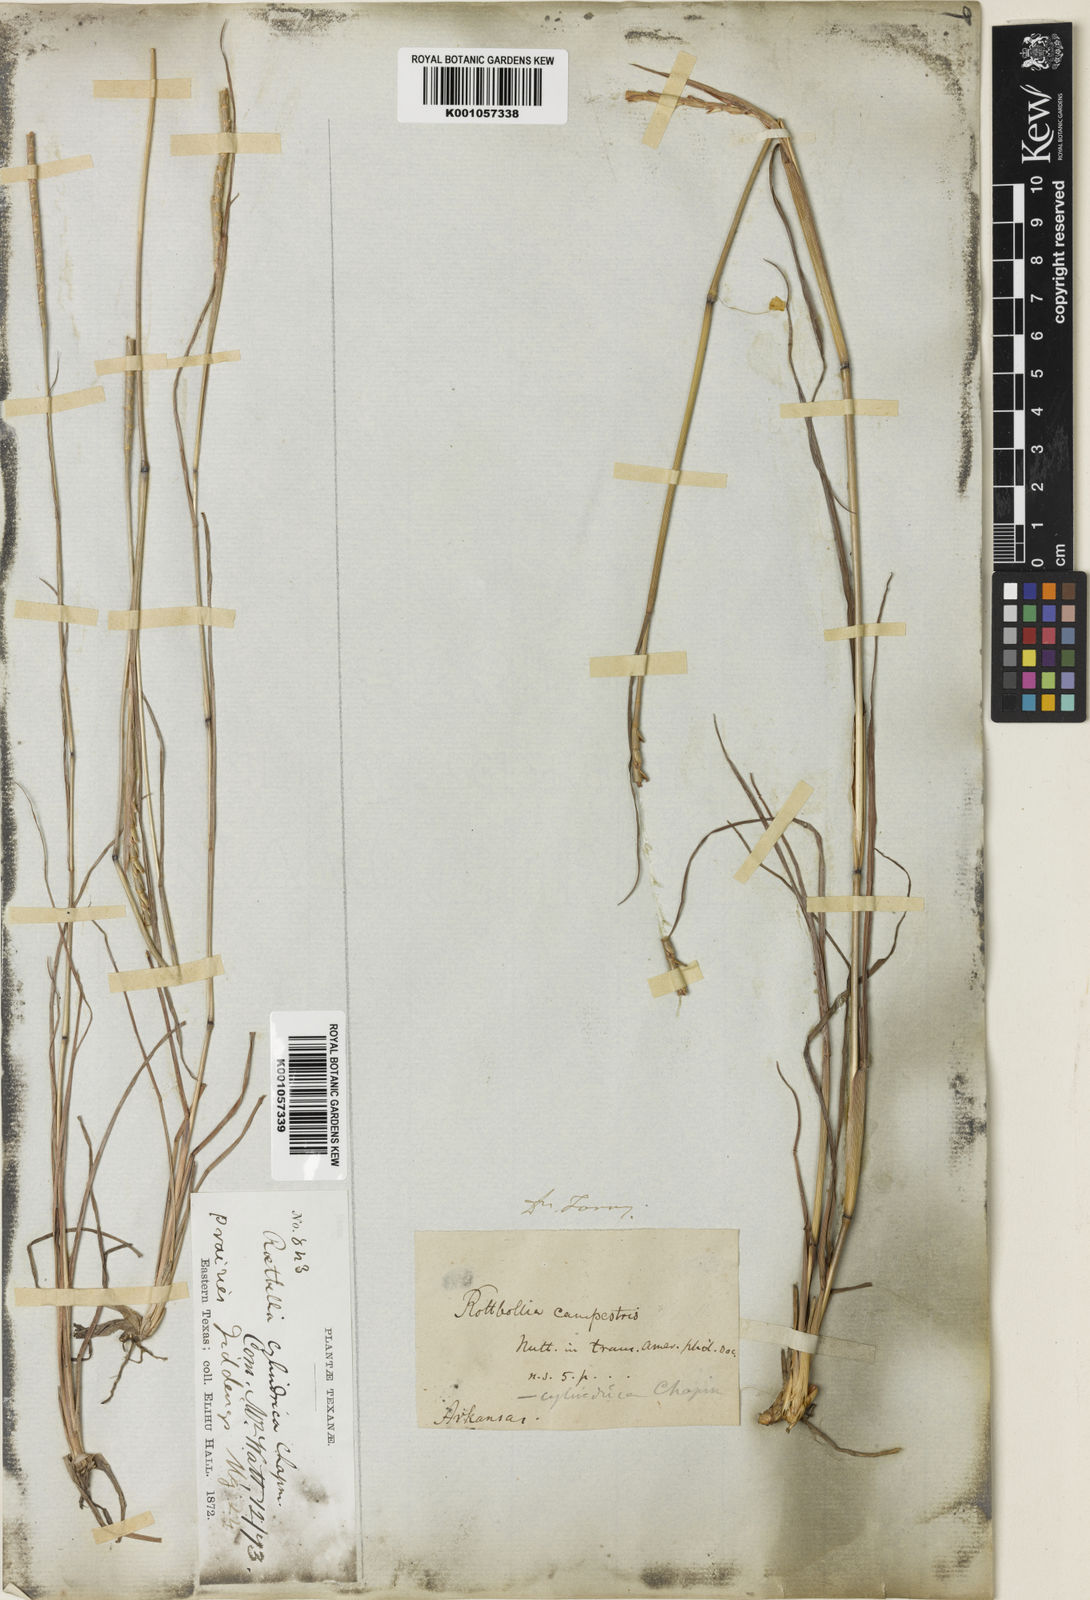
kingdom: Plantae
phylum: Tracheophyta
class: Liliopsida
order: Poales
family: Poaceae
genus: Rottboellia
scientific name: Rottboellia campestris
